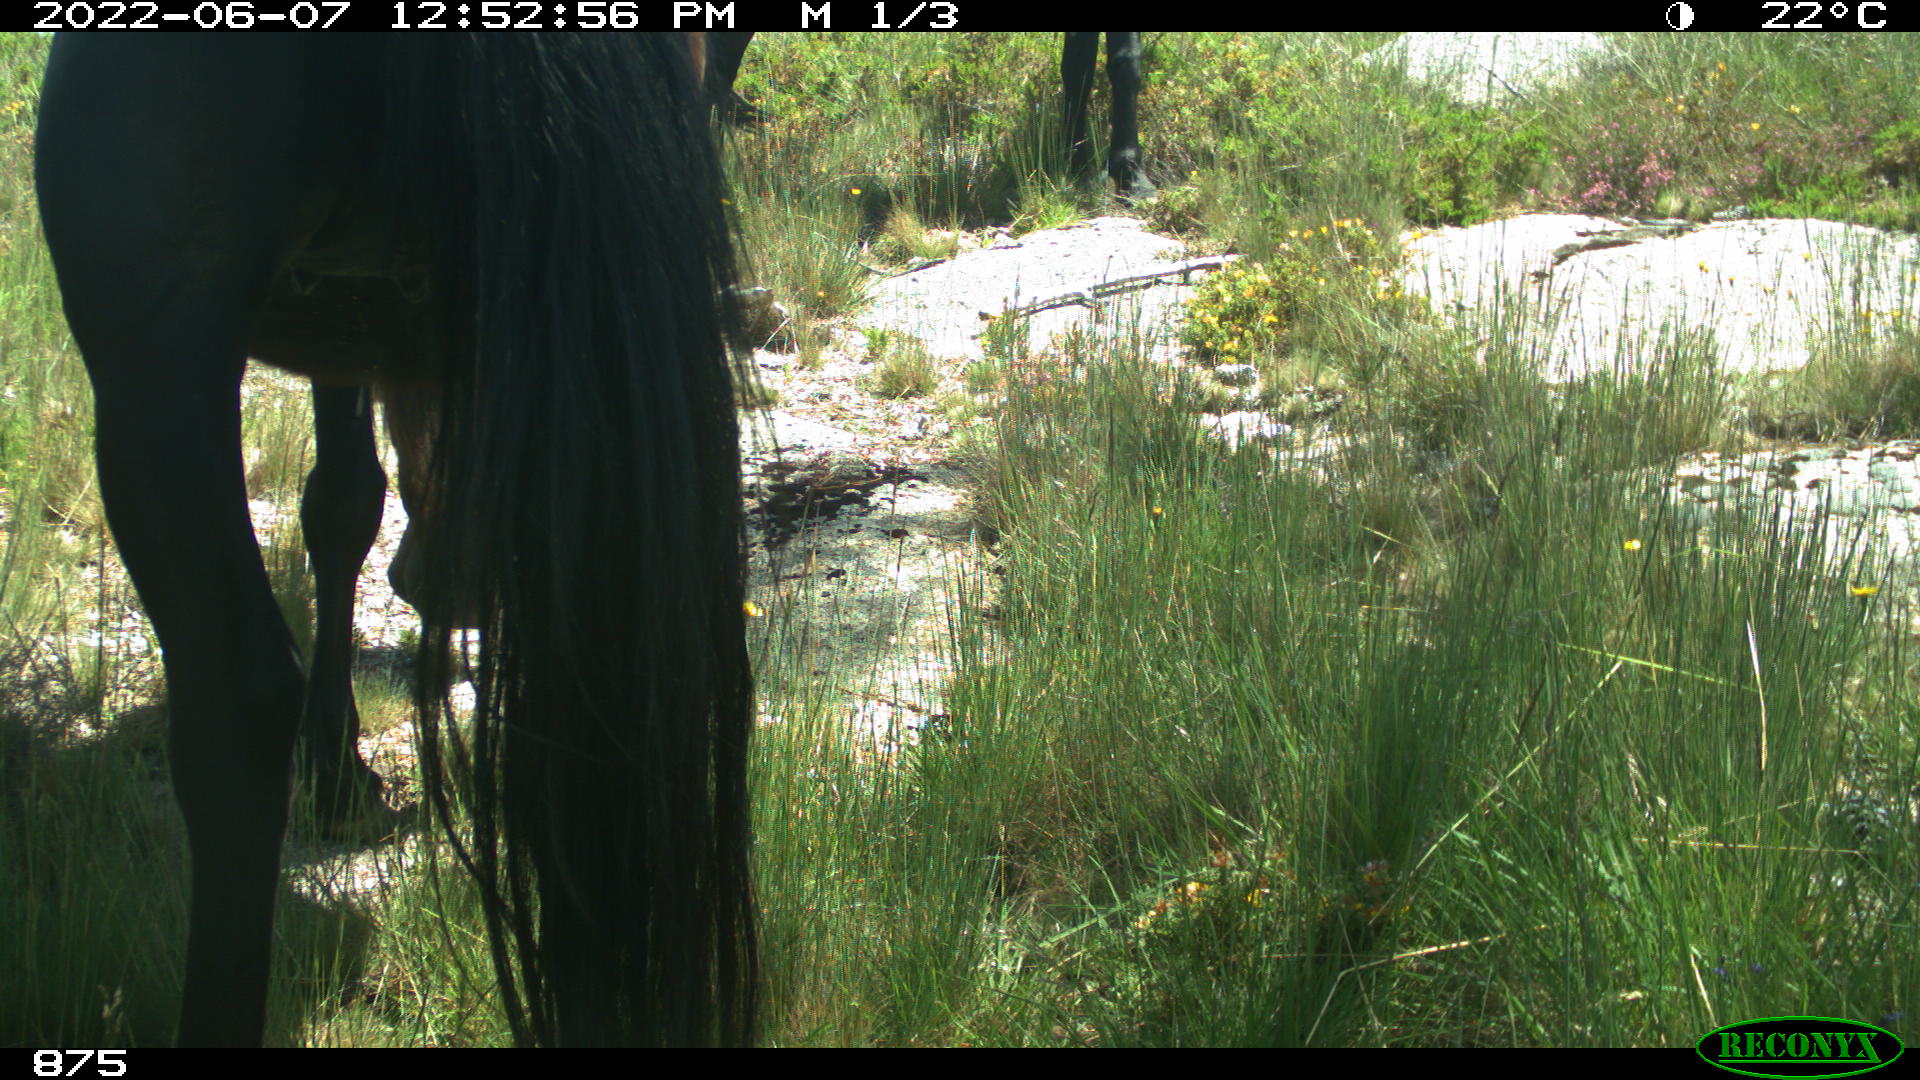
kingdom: Animalia
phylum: Chordata
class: Mammalia
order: Perissodactyla
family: Equidae
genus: Equus
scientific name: Equus caballus
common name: Horse
